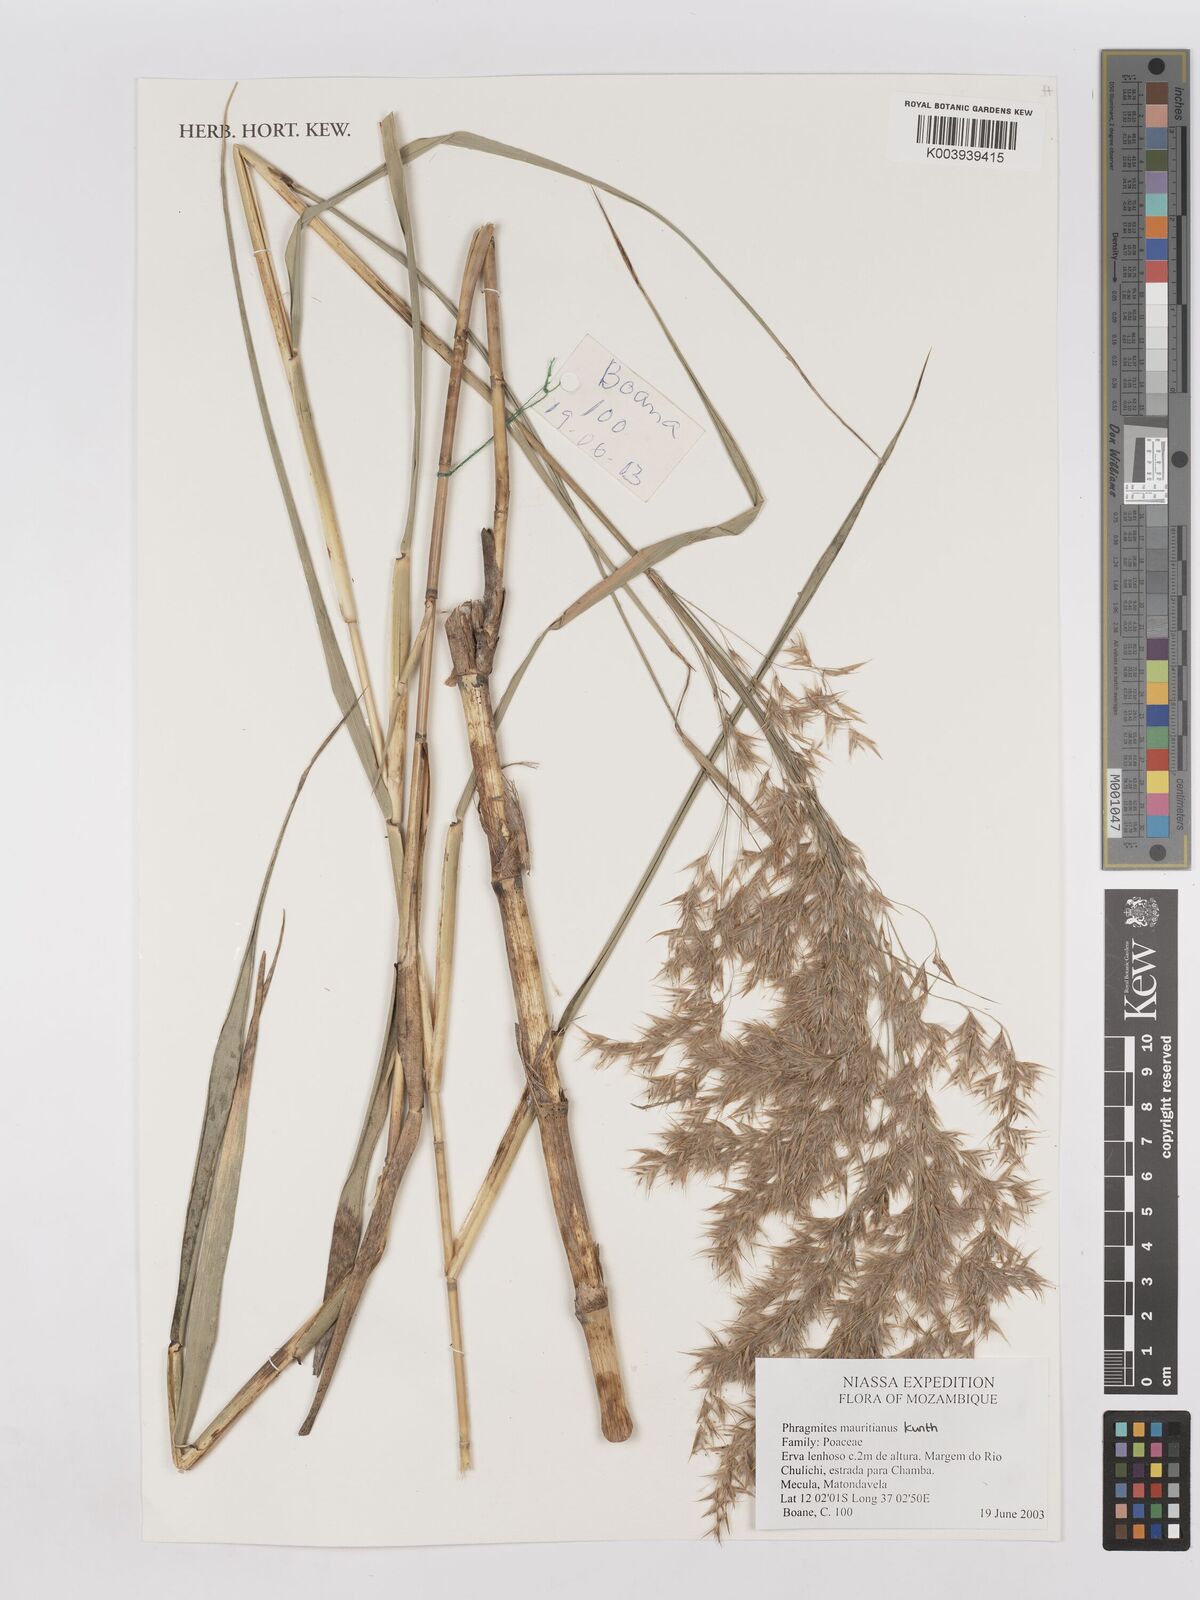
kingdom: Plantae
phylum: Tracheophyta
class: Liliopsida
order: Poales
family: Poaceae
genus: Phragmites
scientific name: Phragmites mauritianus
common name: Reed grass
